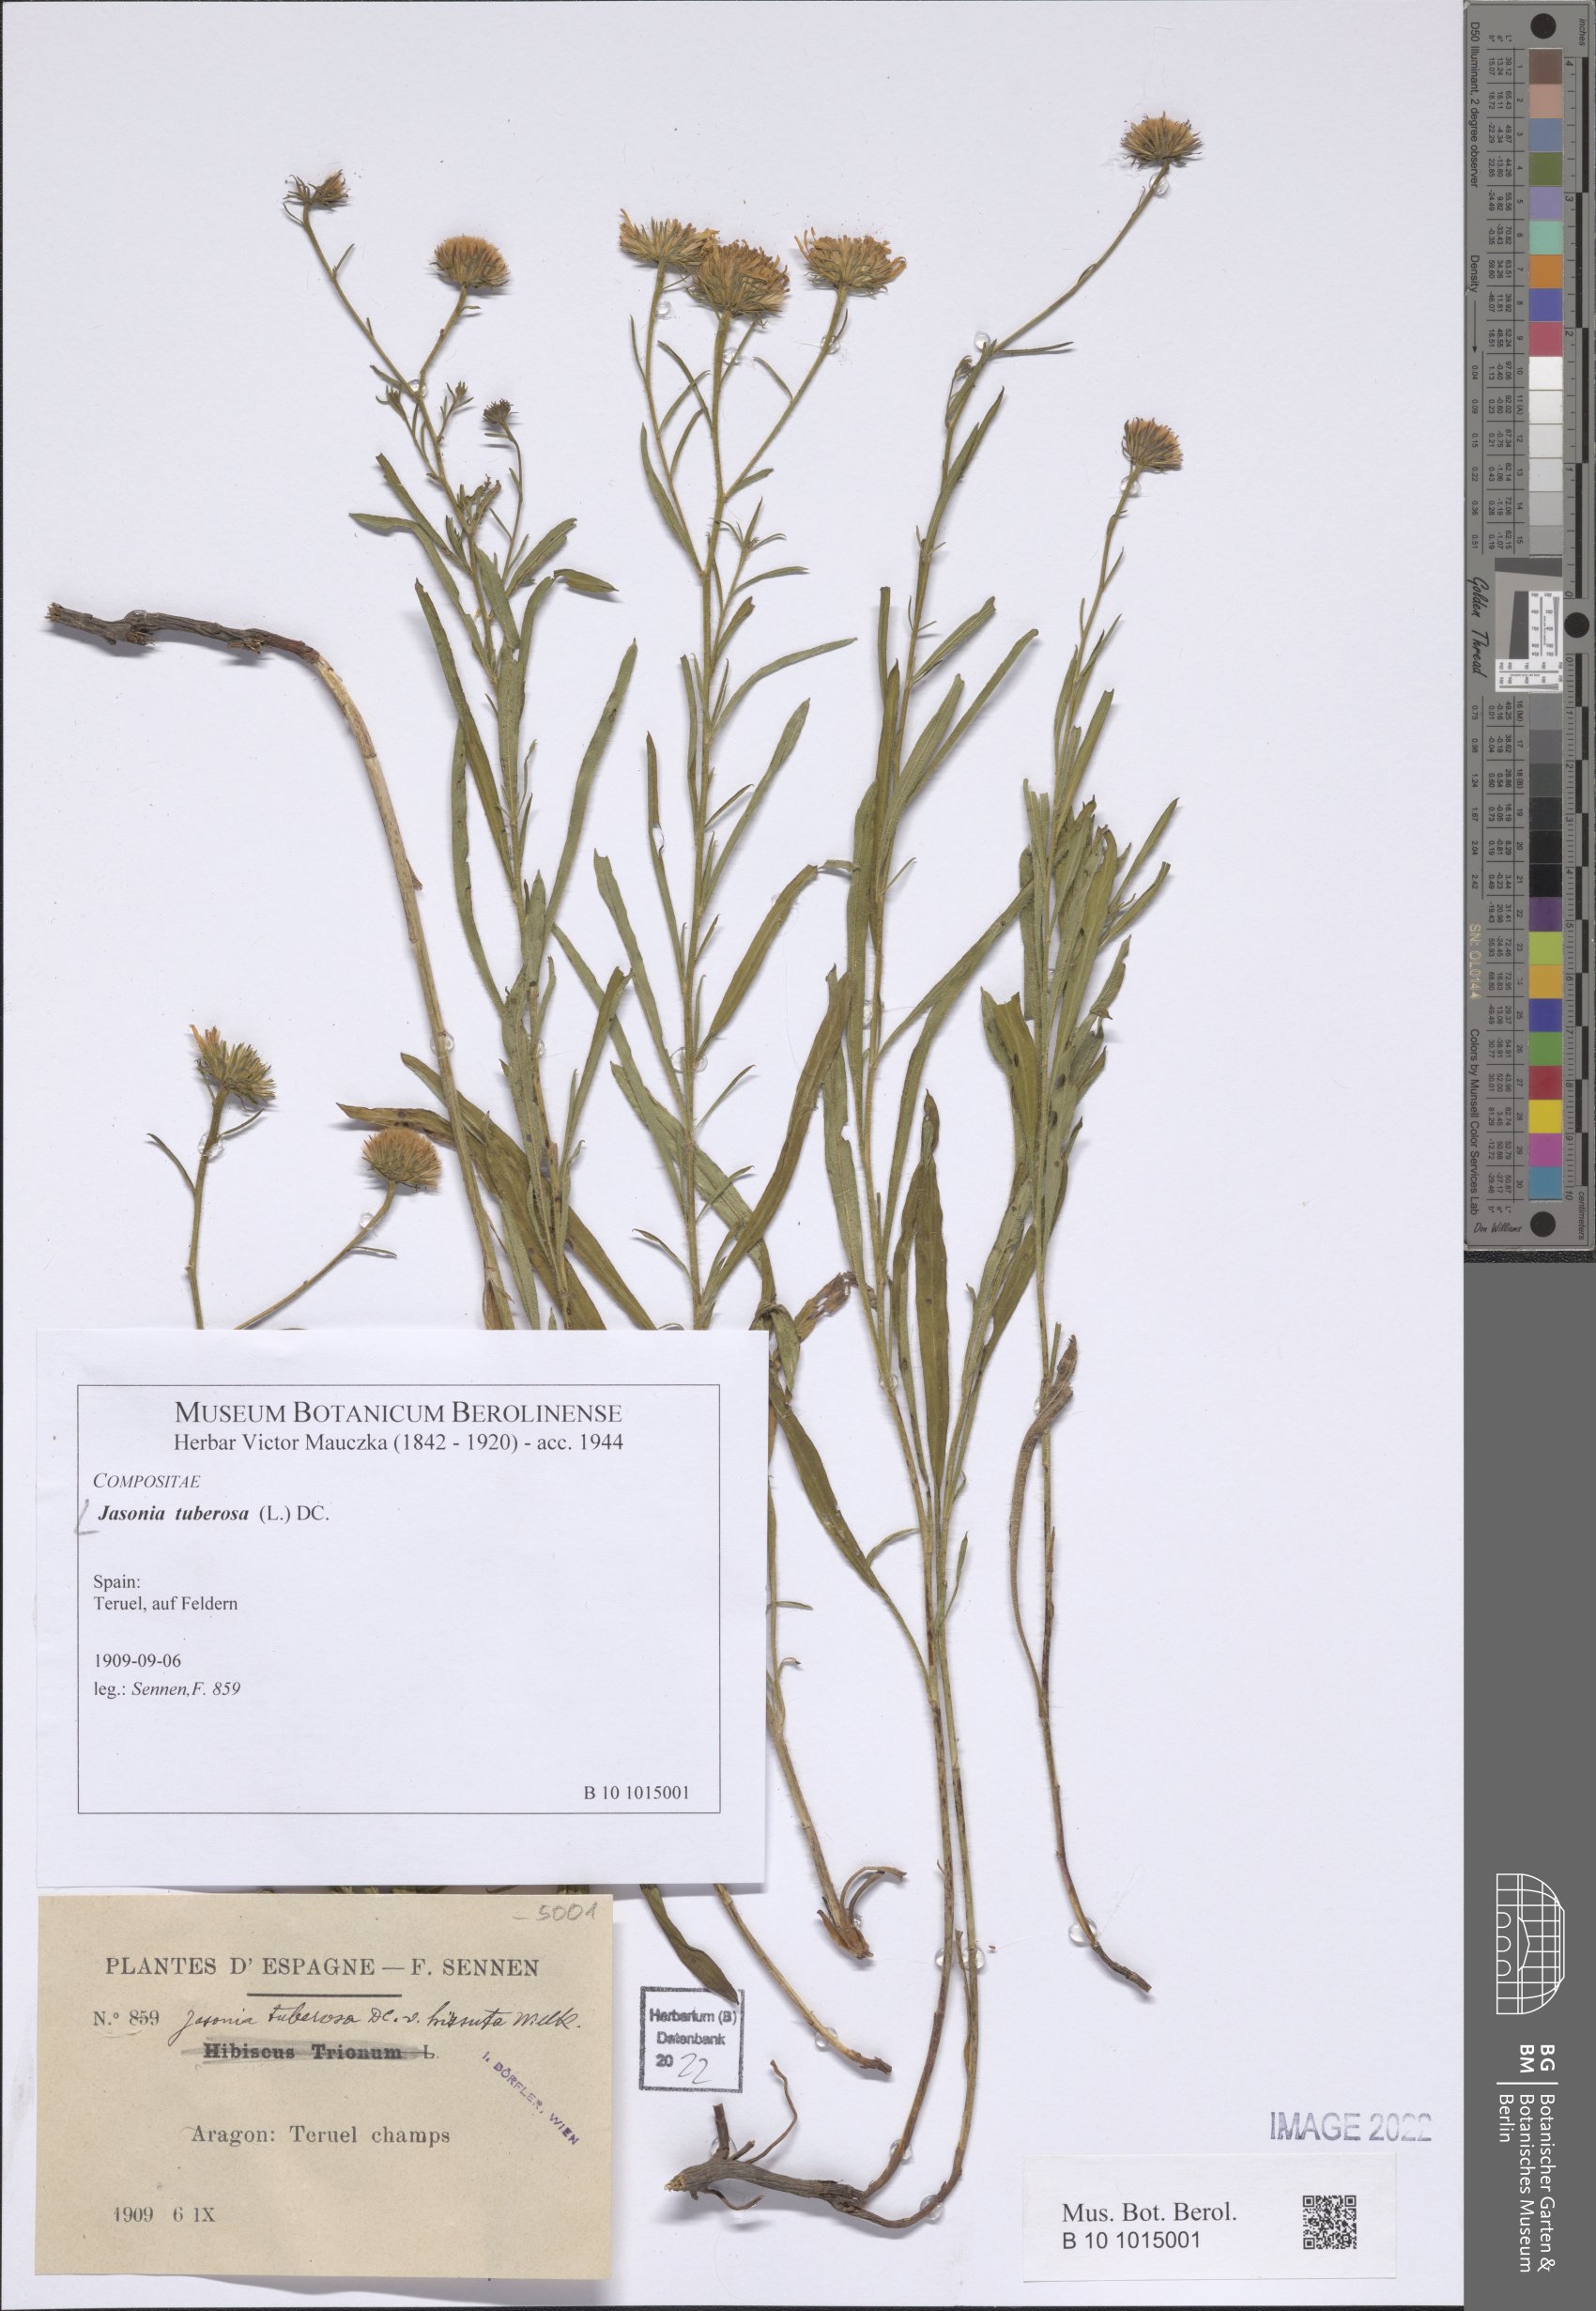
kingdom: Plantae
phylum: Tracheophyta
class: Magnoliopsida
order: Asterales
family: Asteraceae
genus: Jasonia
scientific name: Jasonia tuberosa
